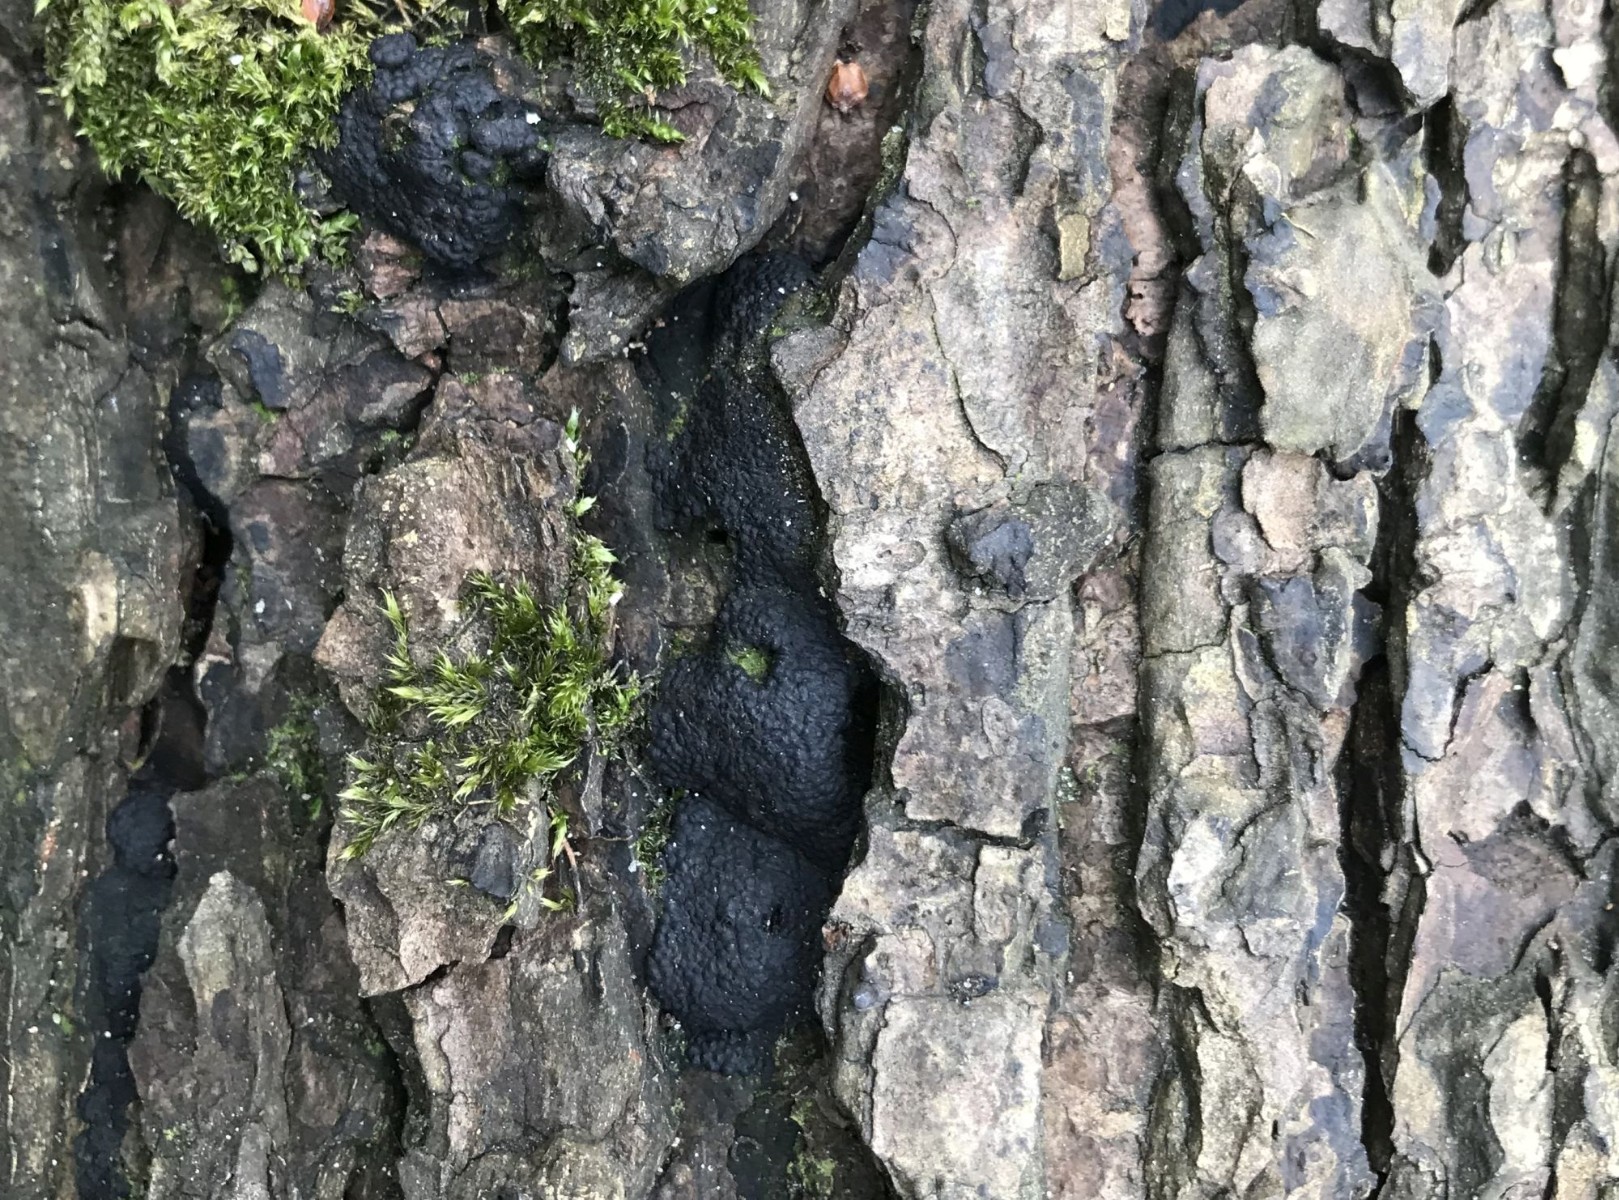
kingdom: Fungi
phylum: Ascomycota
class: Sordariomycetes
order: Boliniales
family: Boliniaceae
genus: Camarops
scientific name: Camarops polysperma
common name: elle-kulsnegl
